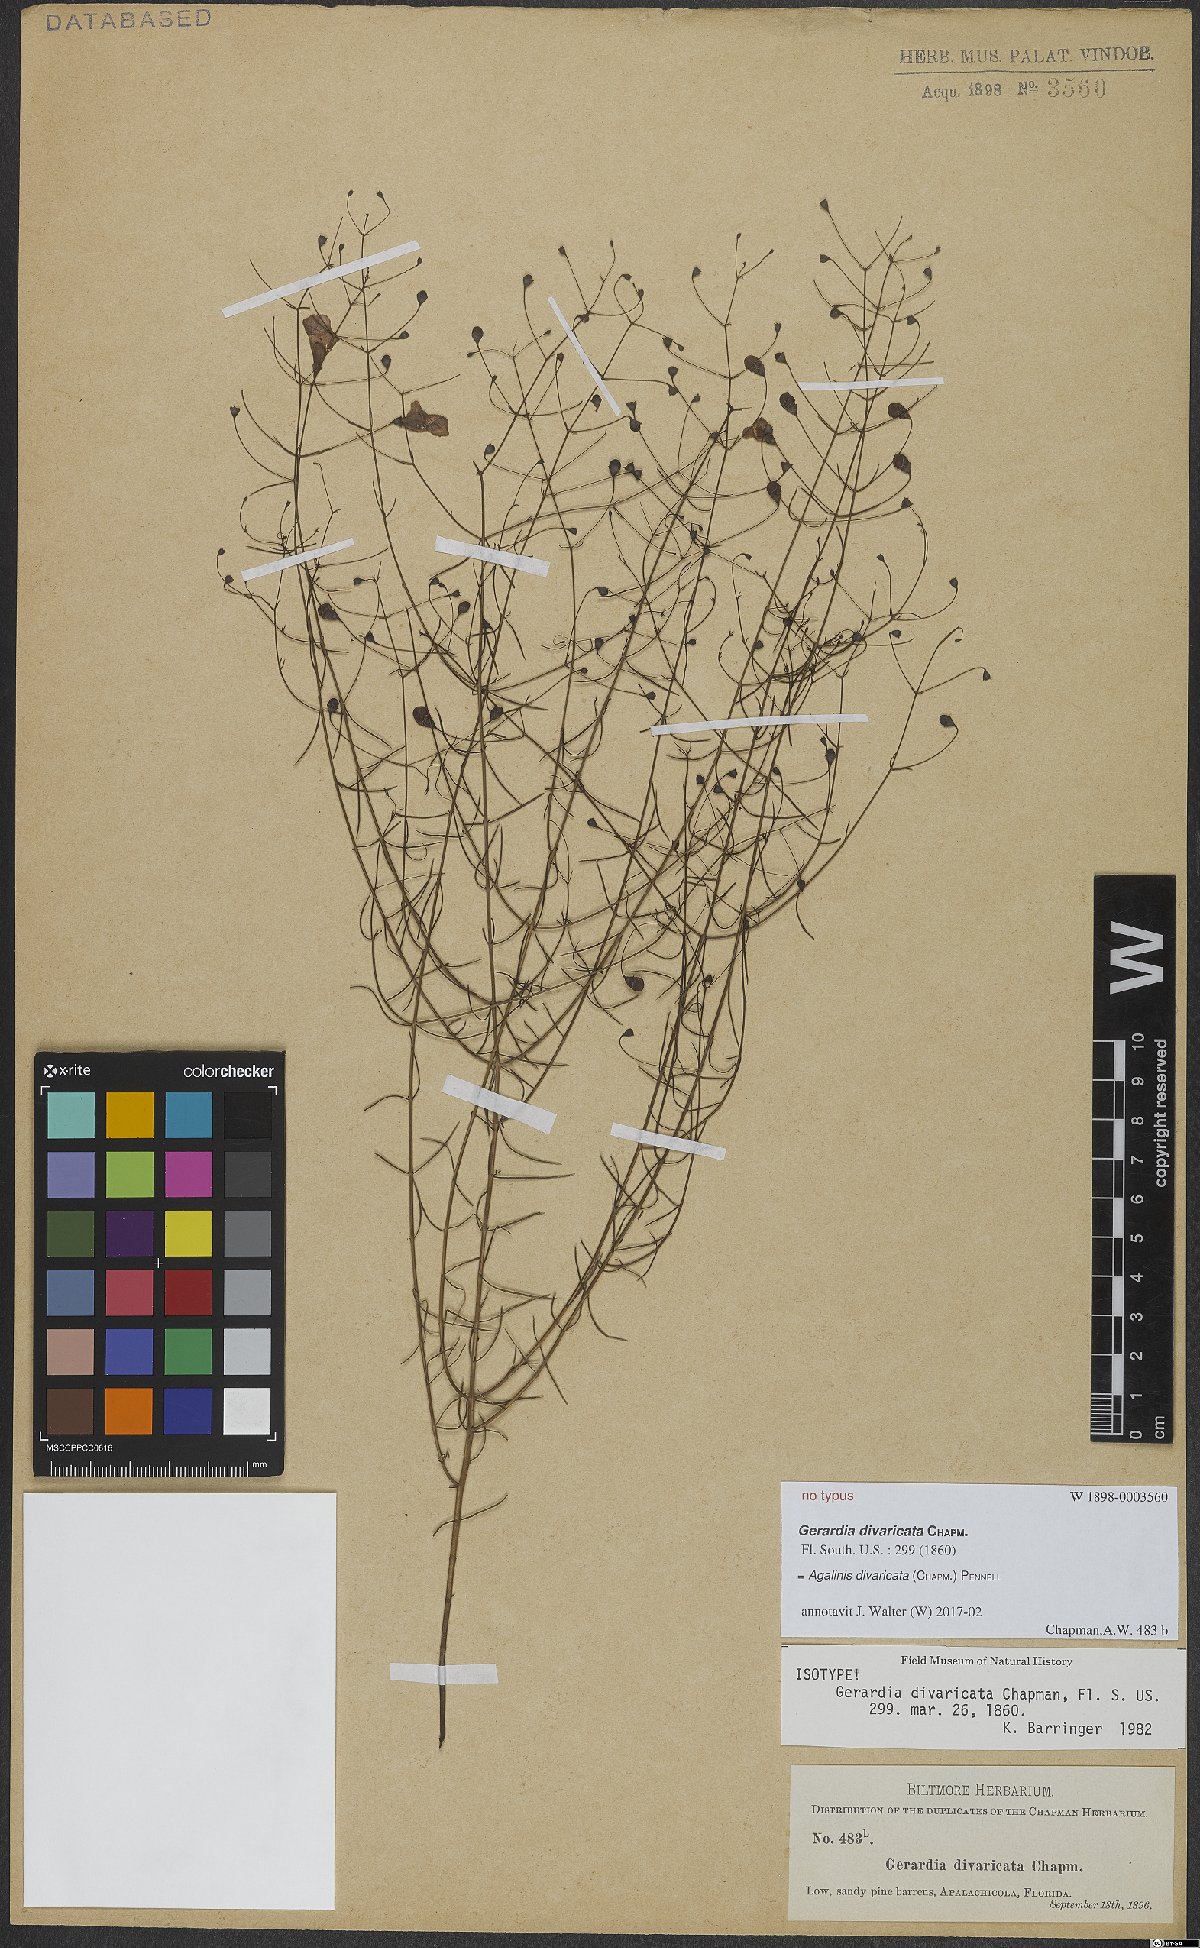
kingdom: Plantae
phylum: Tracheophyta
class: Magnoliopsida
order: Lamiales
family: Orobanchaceae
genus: Agalinis
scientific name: Agalinis divaricata
